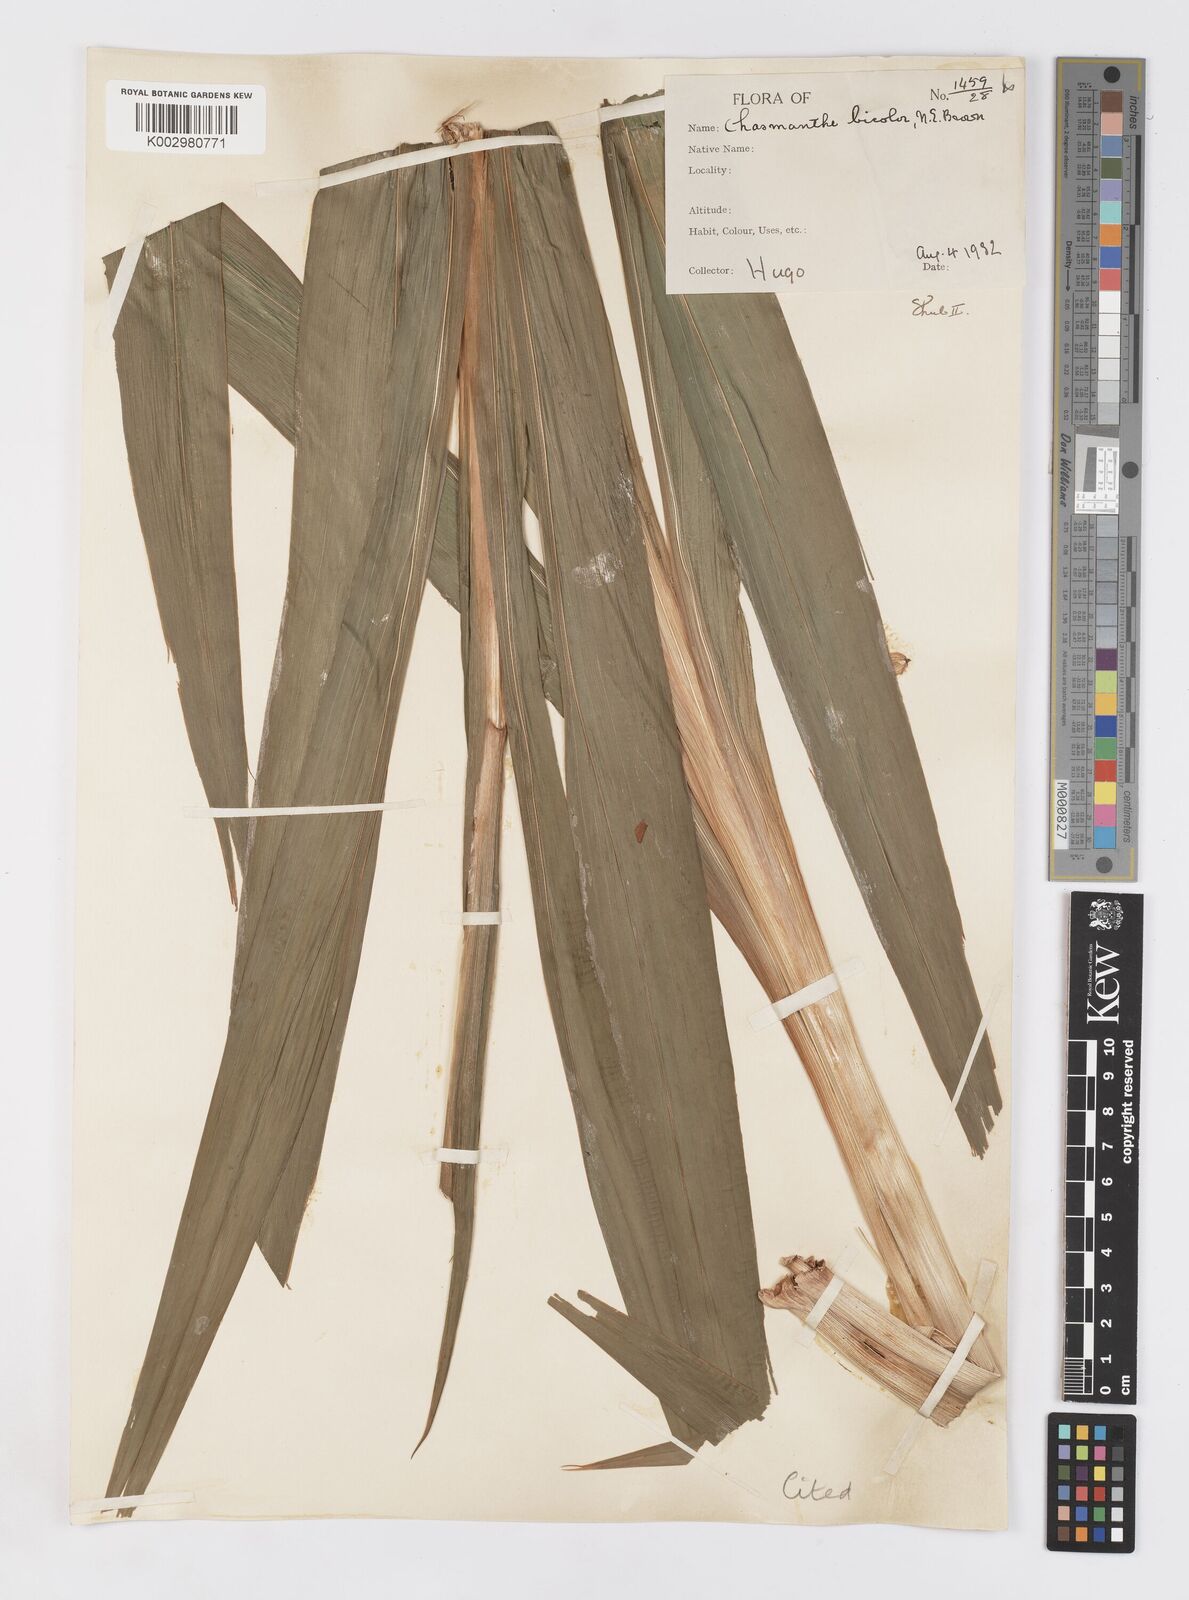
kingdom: Plantae
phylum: Tracheophyta
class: Liliopsida
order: Asparagales
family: Iridaceae
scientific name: Iridaceae
